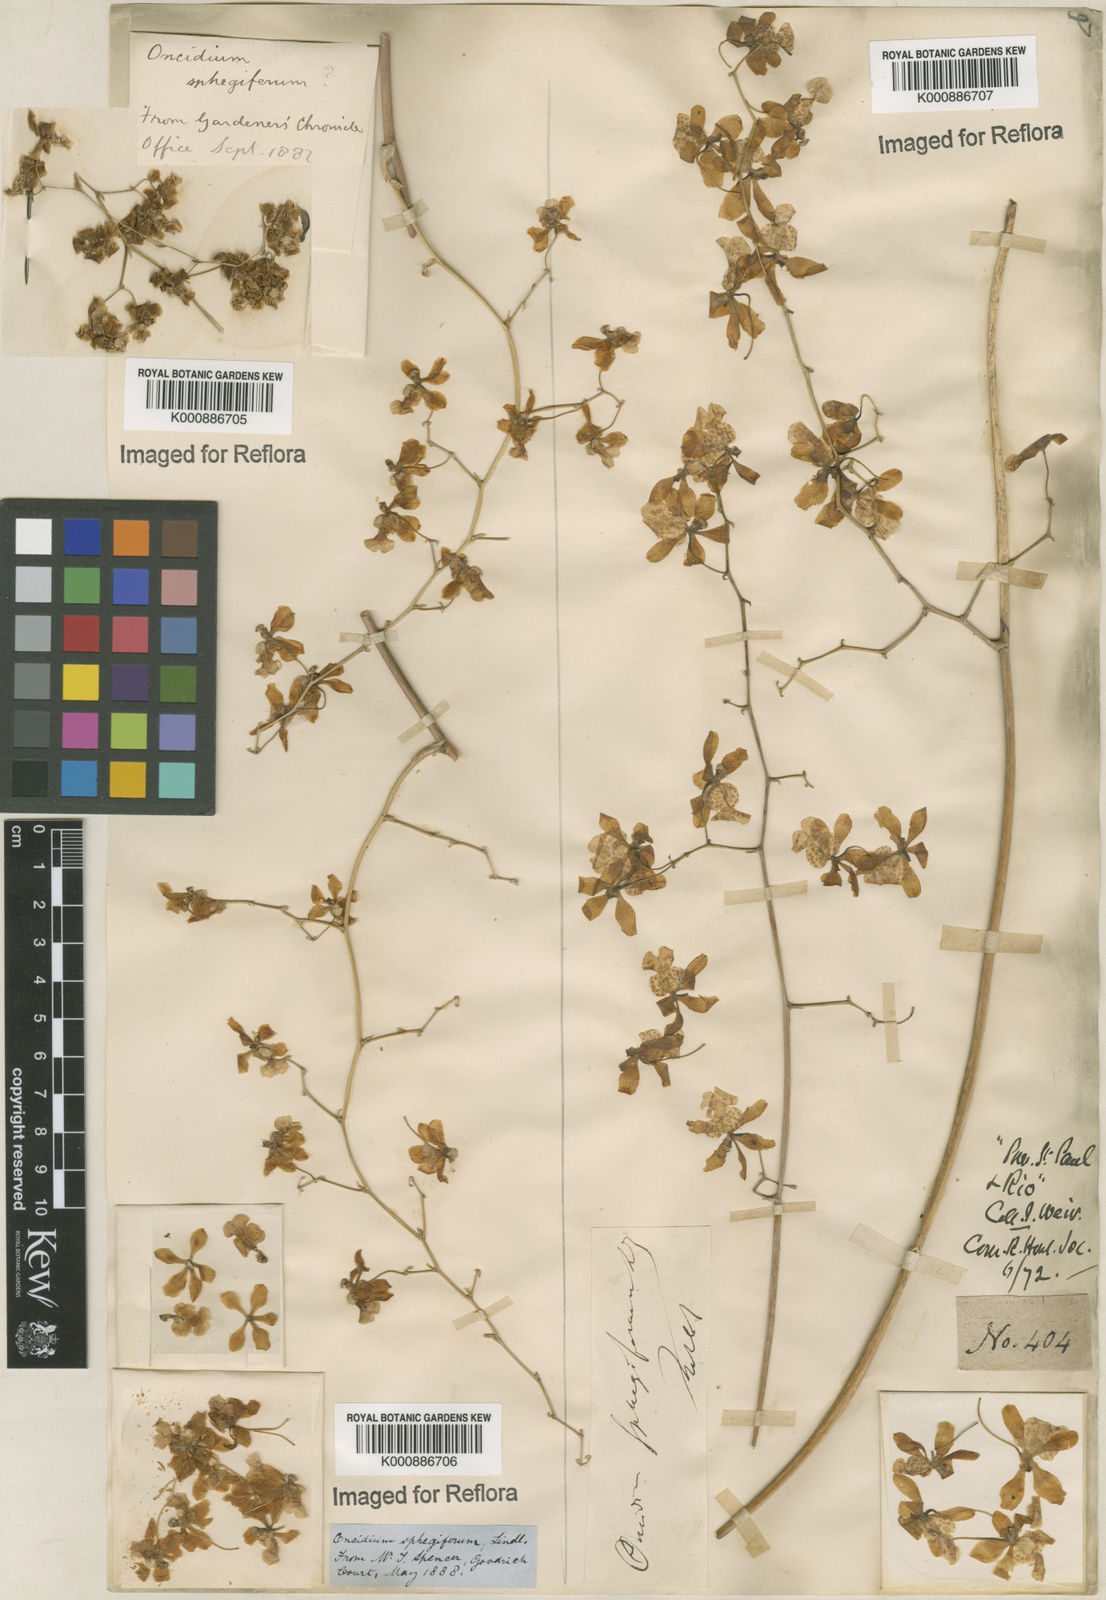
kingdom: Plantae
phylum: Tracheophyta
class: Liliopsida
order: Asparagales
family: Orchidaceae
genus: Grandiphyllum
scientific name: Grandiphyllum divaricatum
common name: Mule-ear orchid
